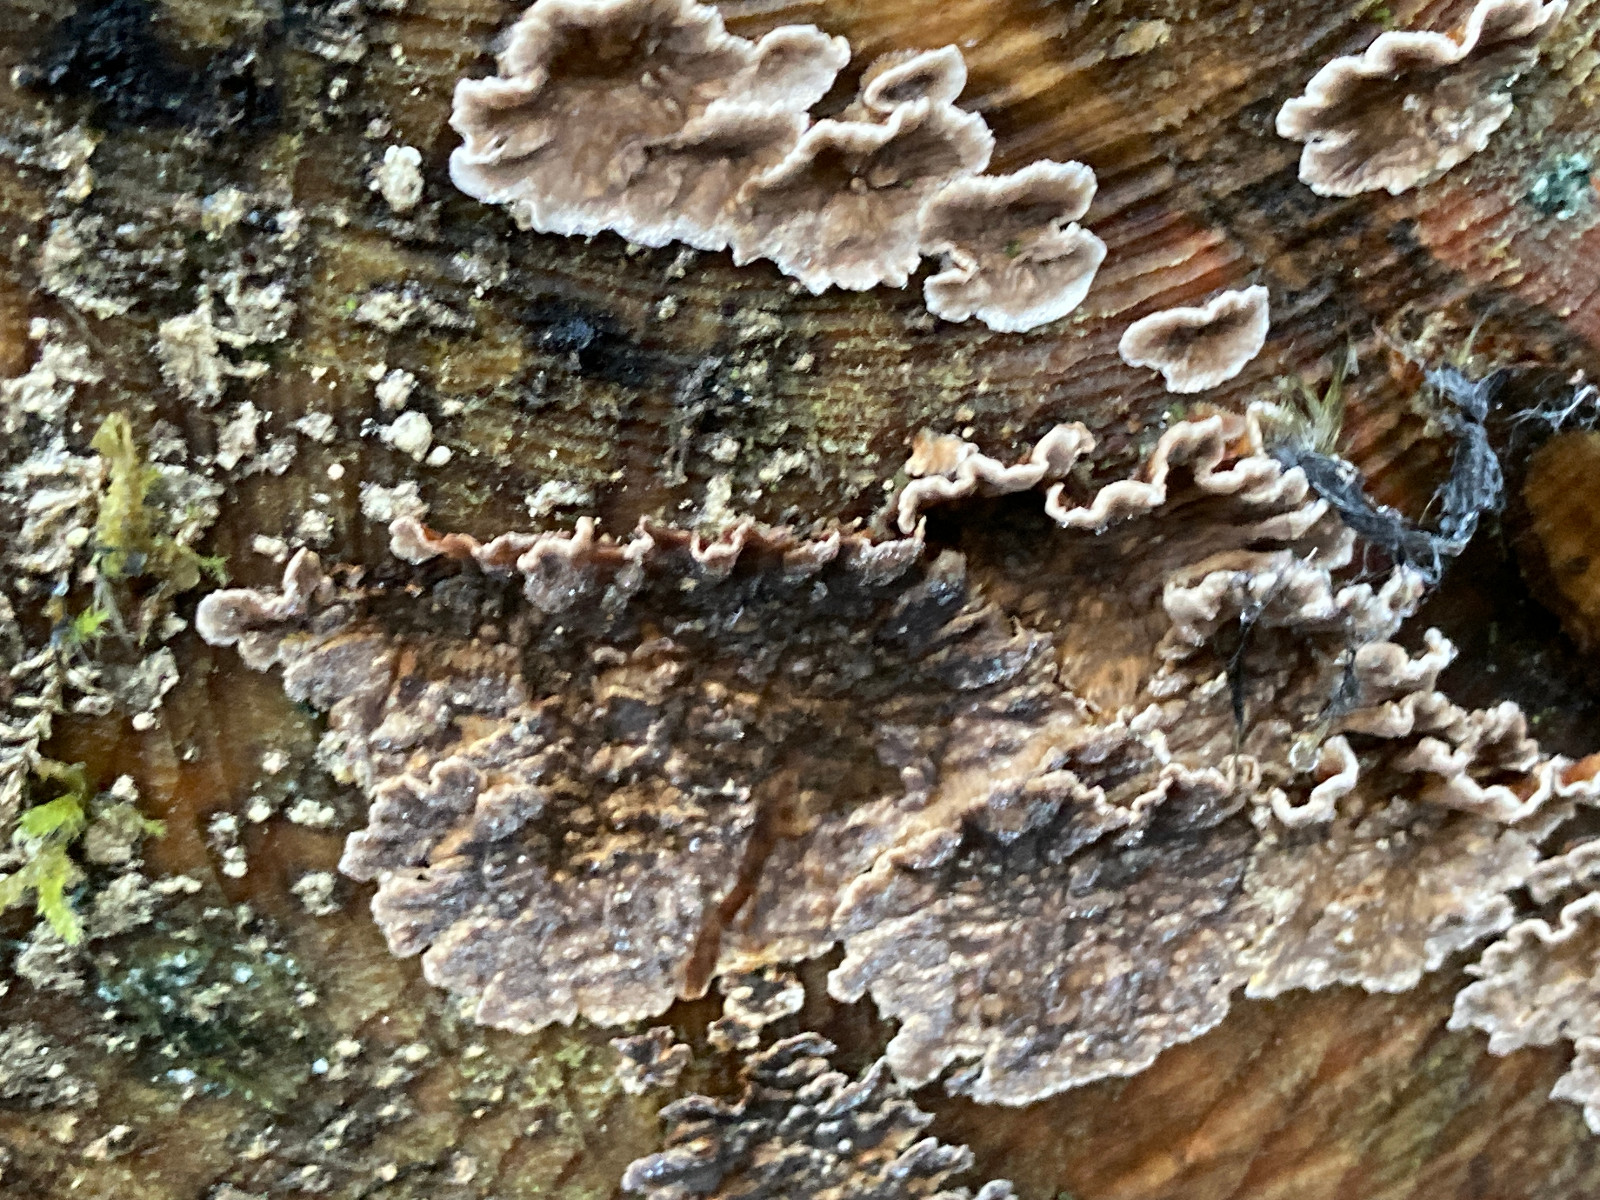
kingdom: Fungi
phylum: Basidiomycota
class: Agaricomycetes
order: Russulales
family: Stereaceae
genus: Stereum
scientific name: Stereum sanguinolentum
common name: blødende lædersvamp
